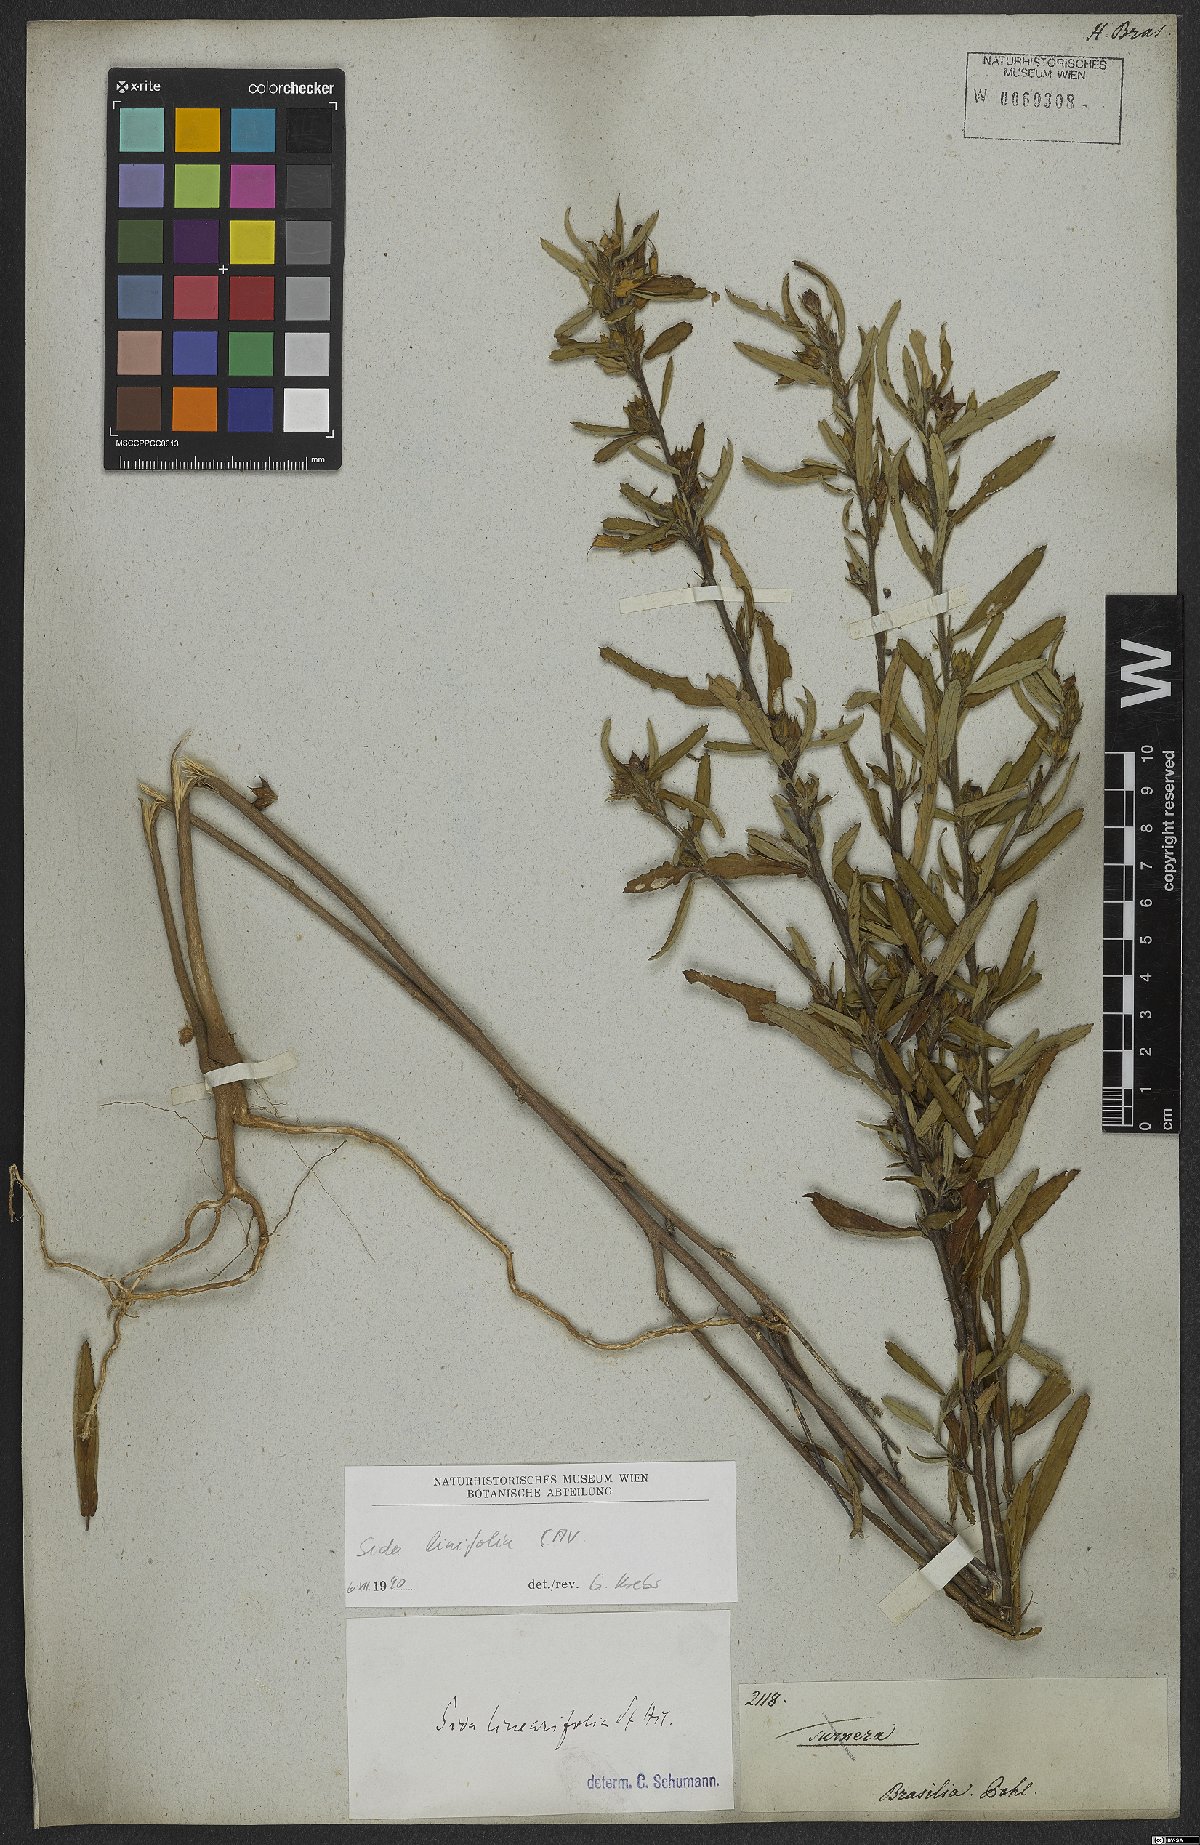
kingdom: Plantae
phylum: Tracheophyta
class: Magnoliopsida
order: Malvales
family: Malvaceae
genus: Sida
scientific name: Sida linifolia
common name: Flaxleaf fanpetals
